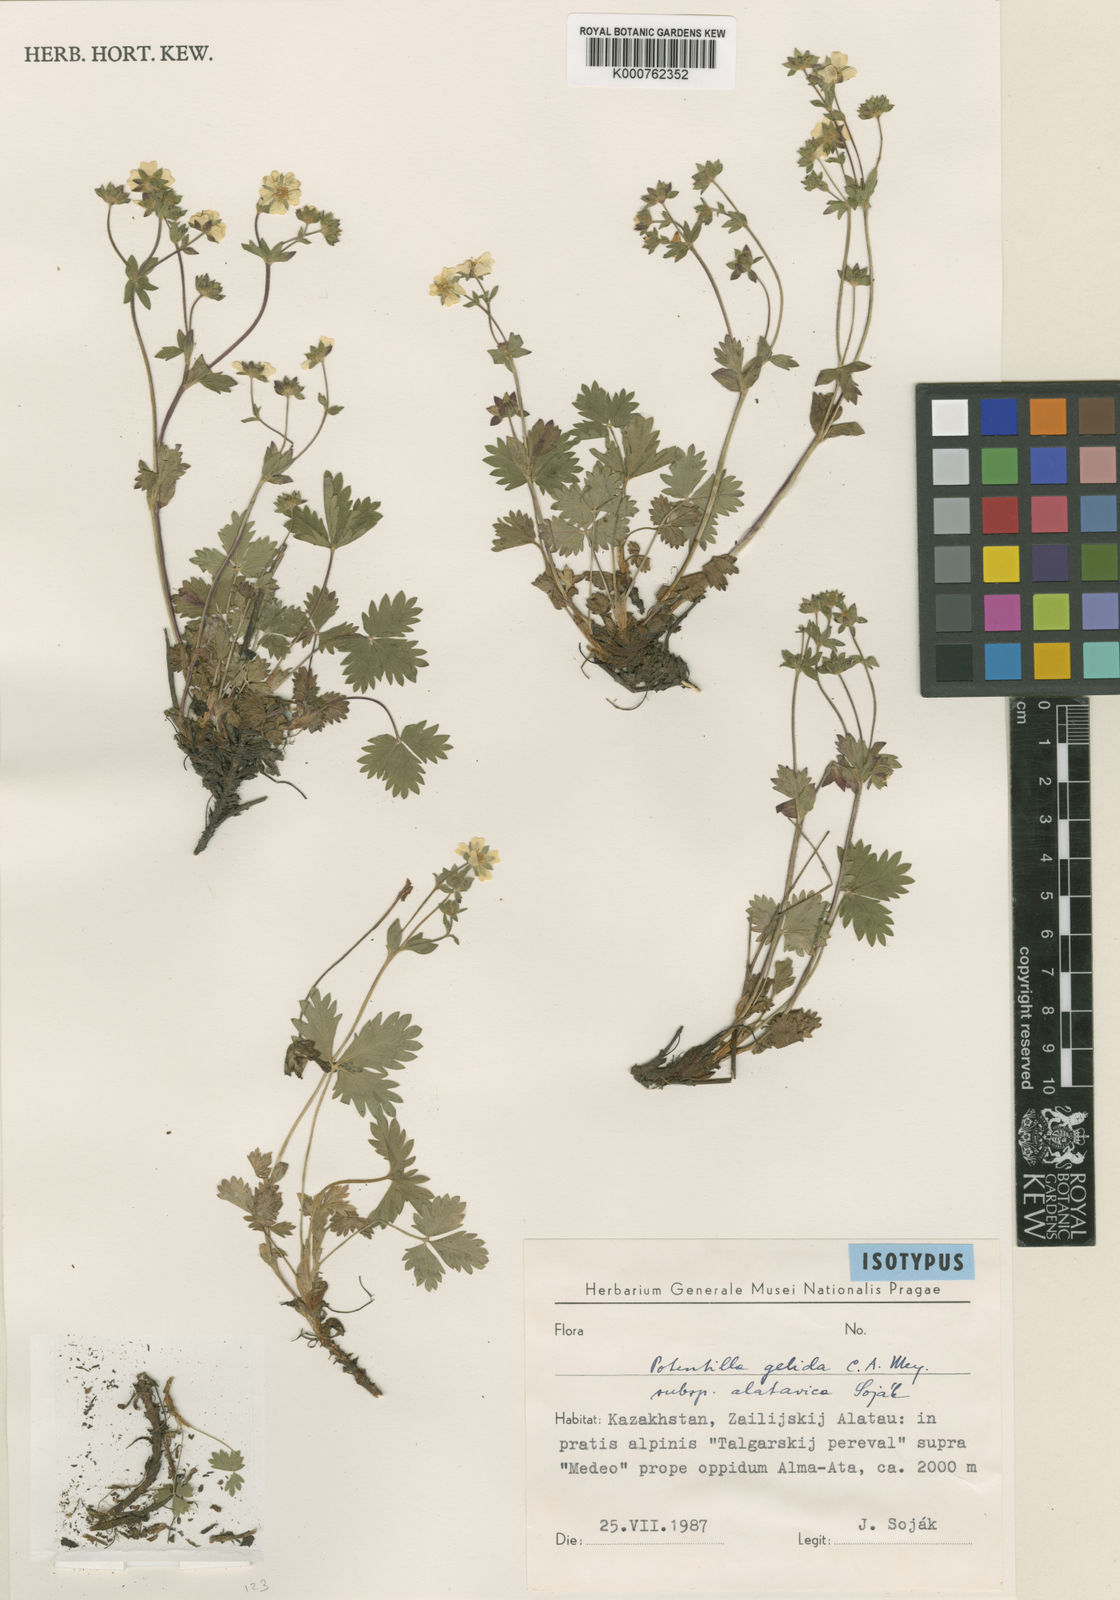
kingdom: Plantae
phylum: Tracheophyta
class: Magnoliopsida
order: Rosales
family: Rosaceae
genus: Potentilla
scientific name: Potentilla crantzii
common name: Alpine cinquefoil
